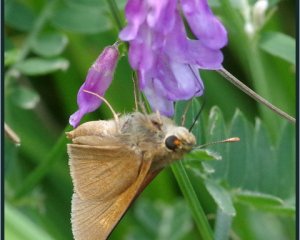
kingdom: Animalia
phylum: Arthropoda
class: Insecta
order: Lepidoptera
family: Hesperiidae
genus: Polites
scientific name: Polites
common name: Crossline Skipper
